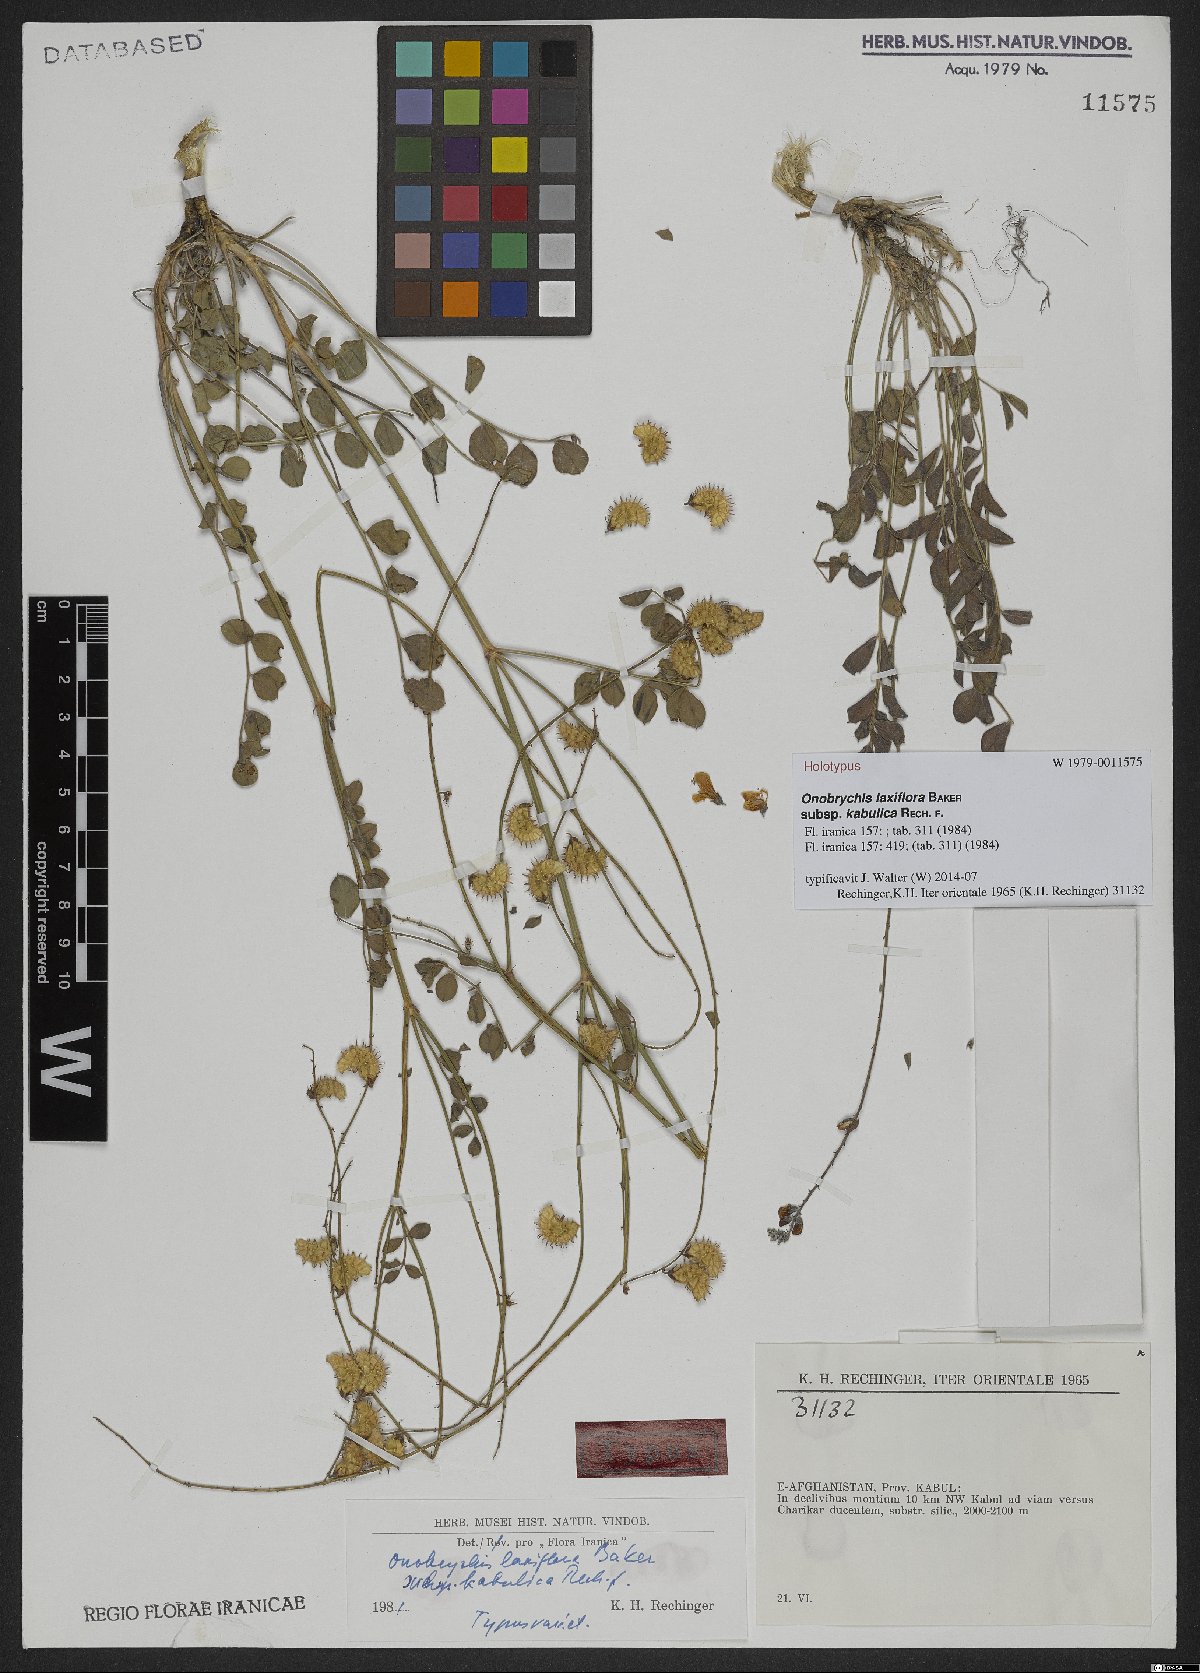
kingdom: Plantae
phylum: Tracheophyta
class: Magnoliopsida
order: Fabales
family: Fabaceae
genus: Onobrychis
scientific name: Onobrychis laxiflora
